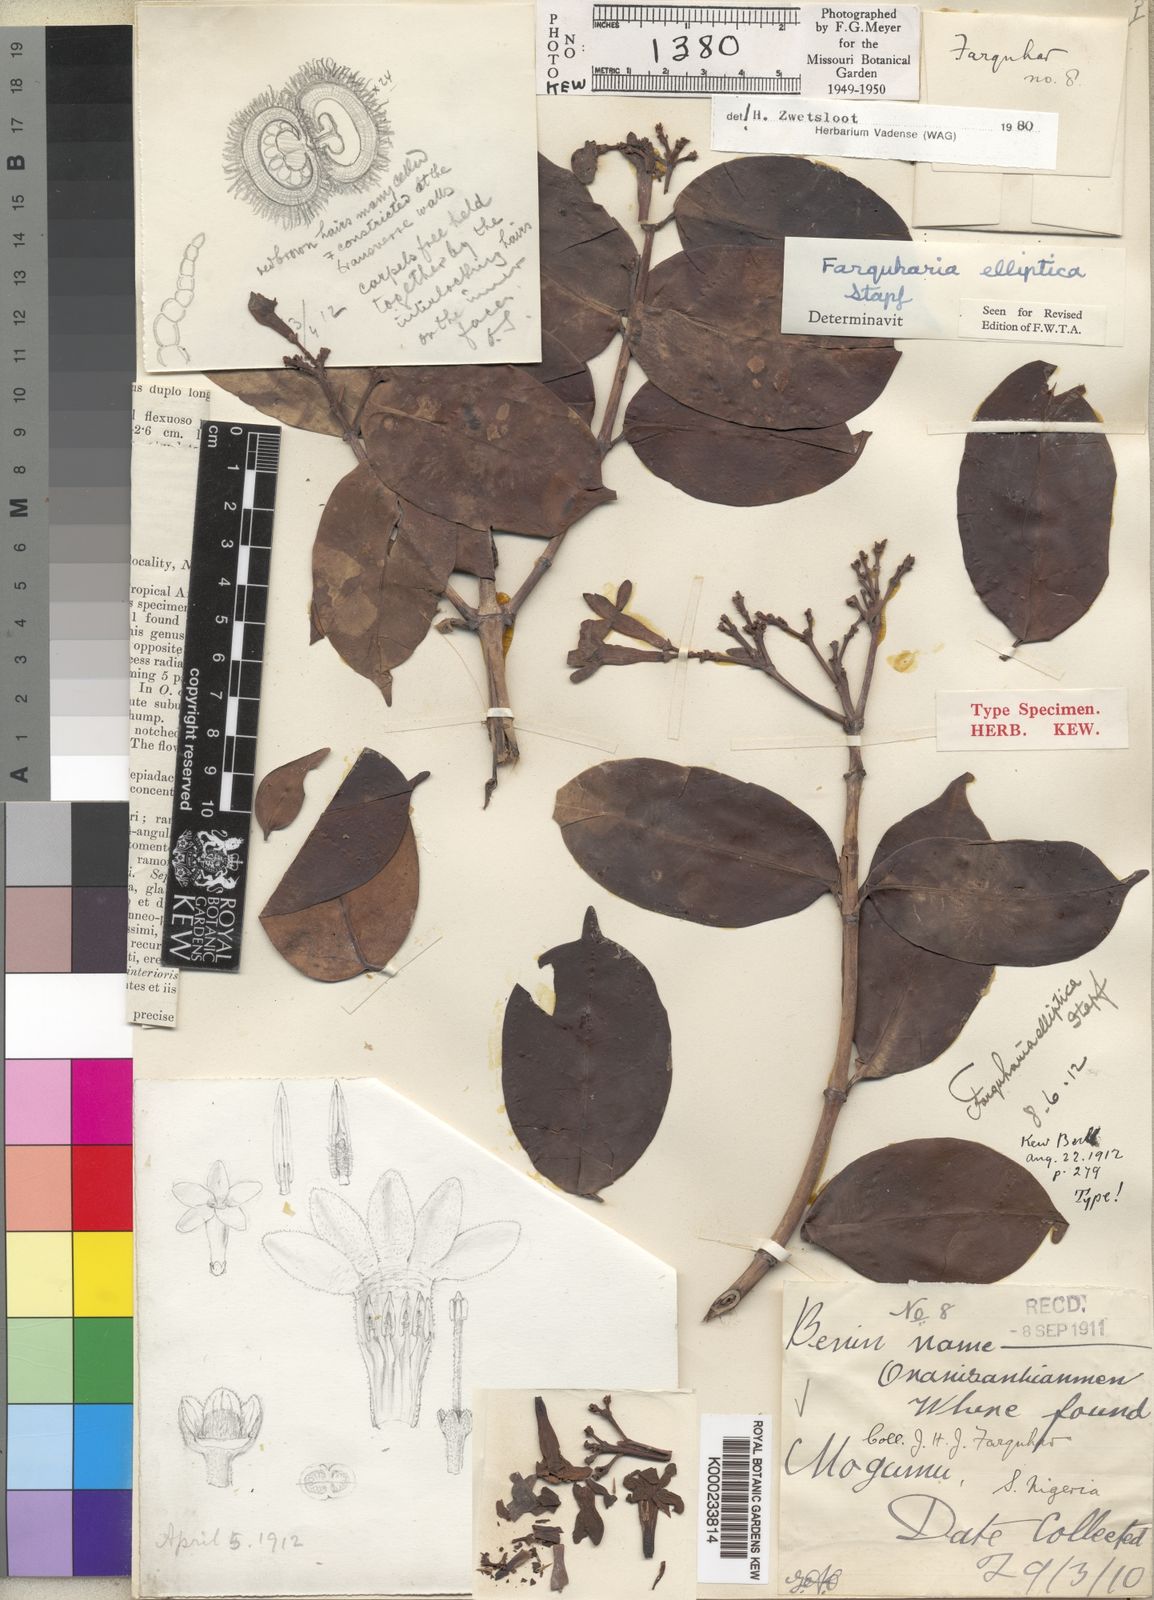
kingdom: Plantae
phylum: Tracheophyta
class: Magnoliopsida
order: Gentianales
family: Apocynaceae
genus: Farquharia
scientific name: Farquharia elliptica
